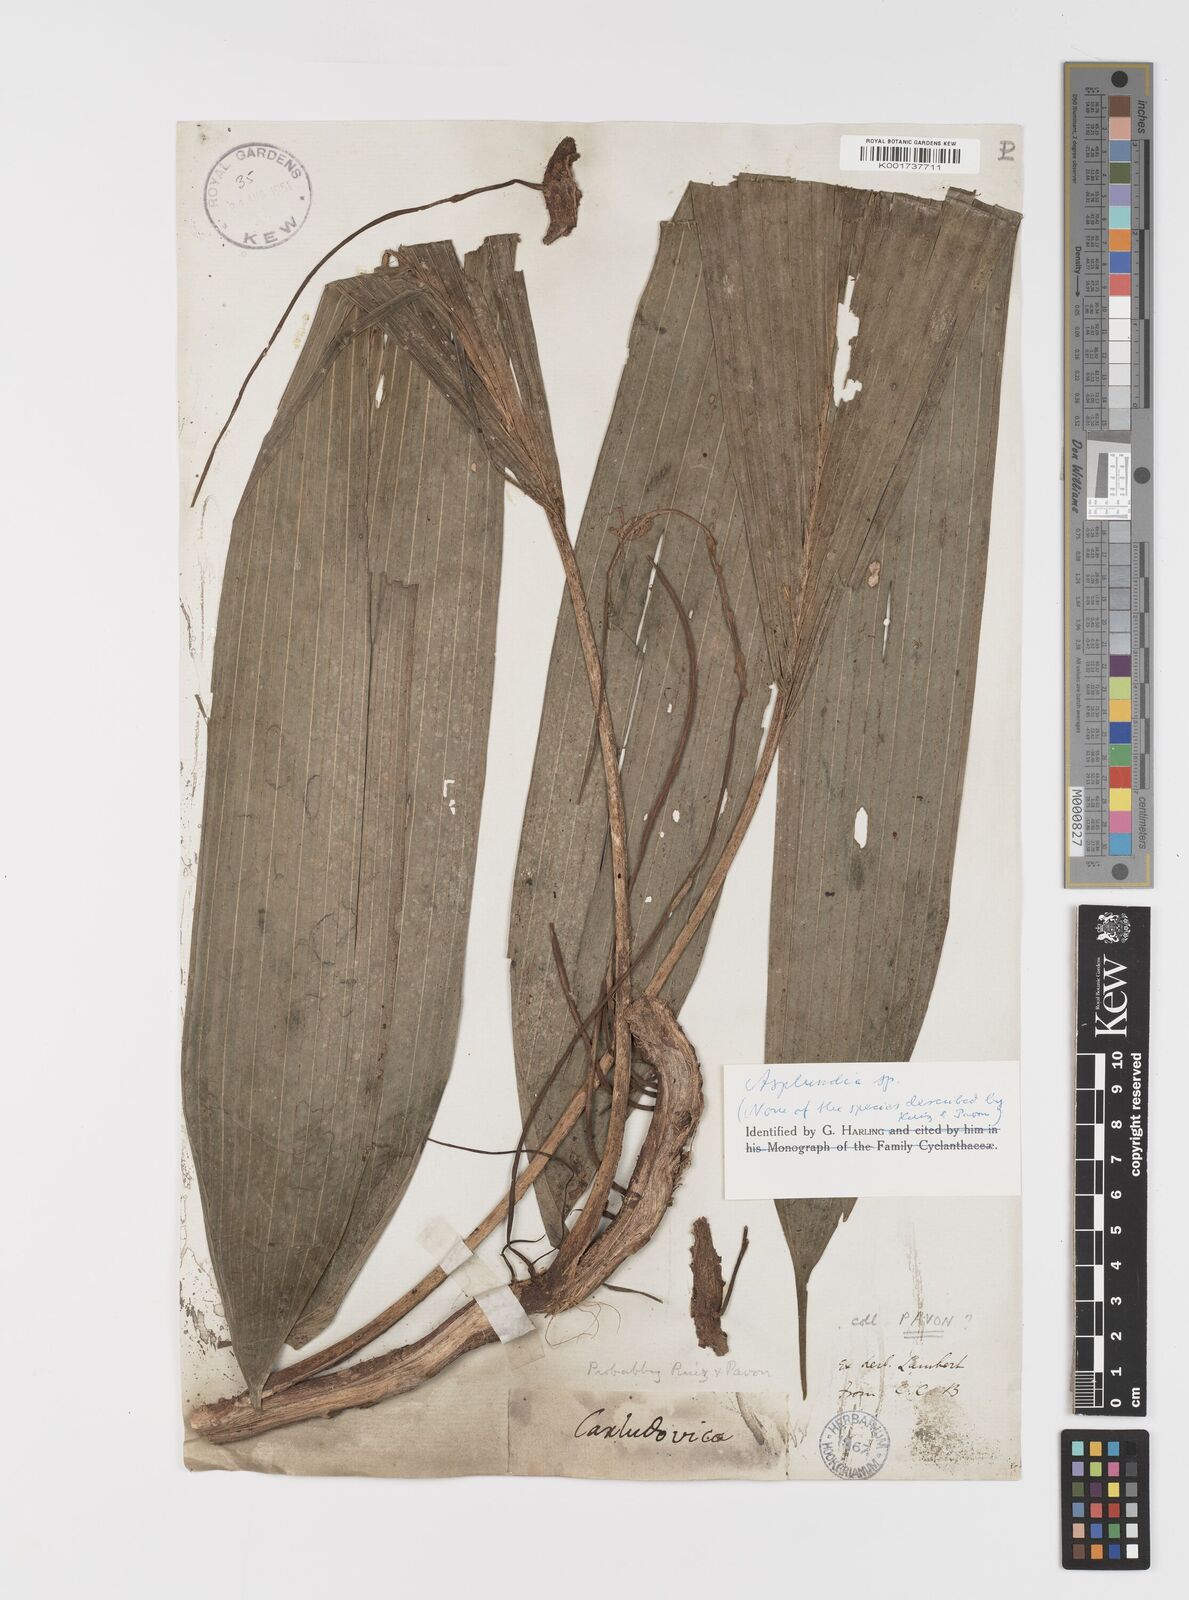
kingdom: Plantae
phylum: Tracheophyta
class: Liliopsida
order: Pandanales
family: Cyclanthaceae
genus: Asplundia
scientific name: Asplundia
